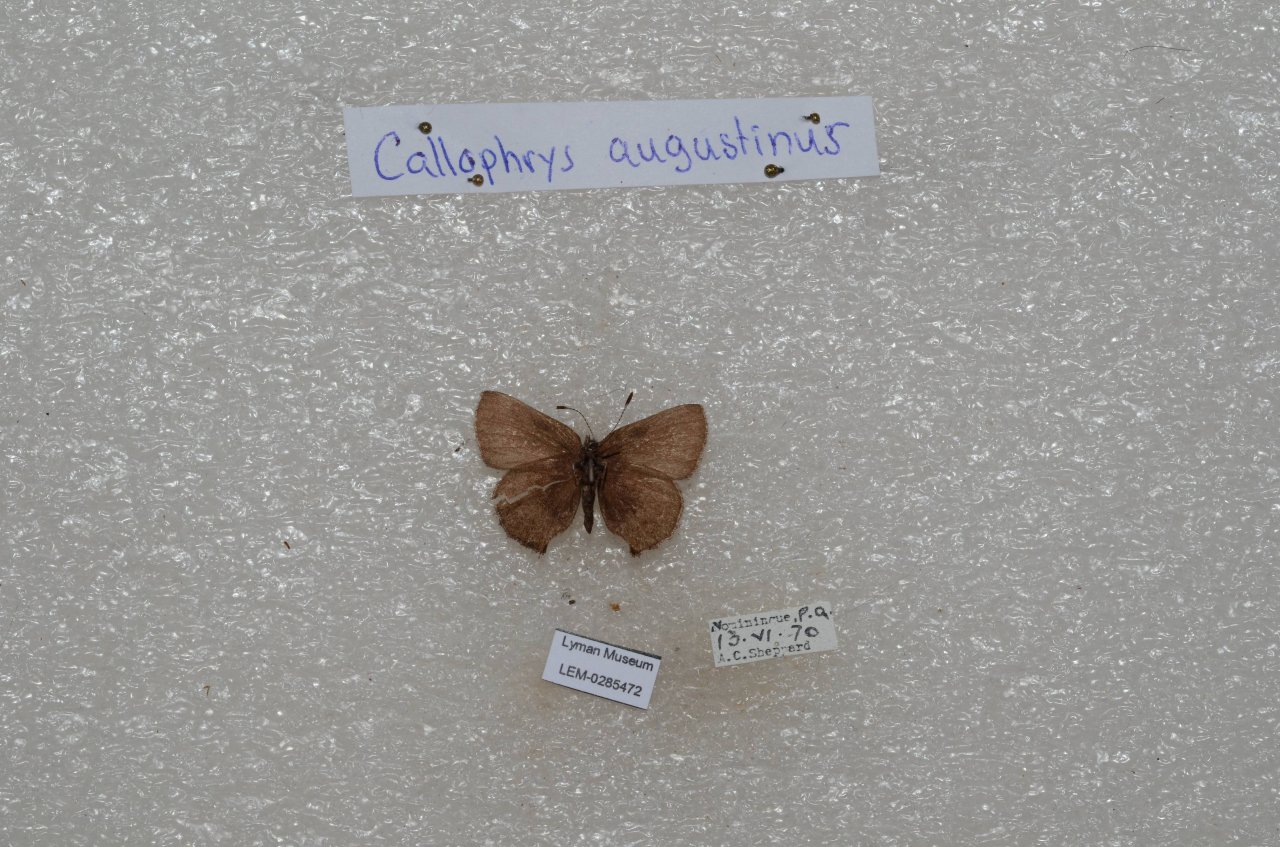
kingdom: Animalia
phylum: Arthropoda
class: Insecta
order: Lepidoptera
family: Lycaenidae
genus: Incisalia
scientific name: Incisalia irioides
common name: Brown Elfin
